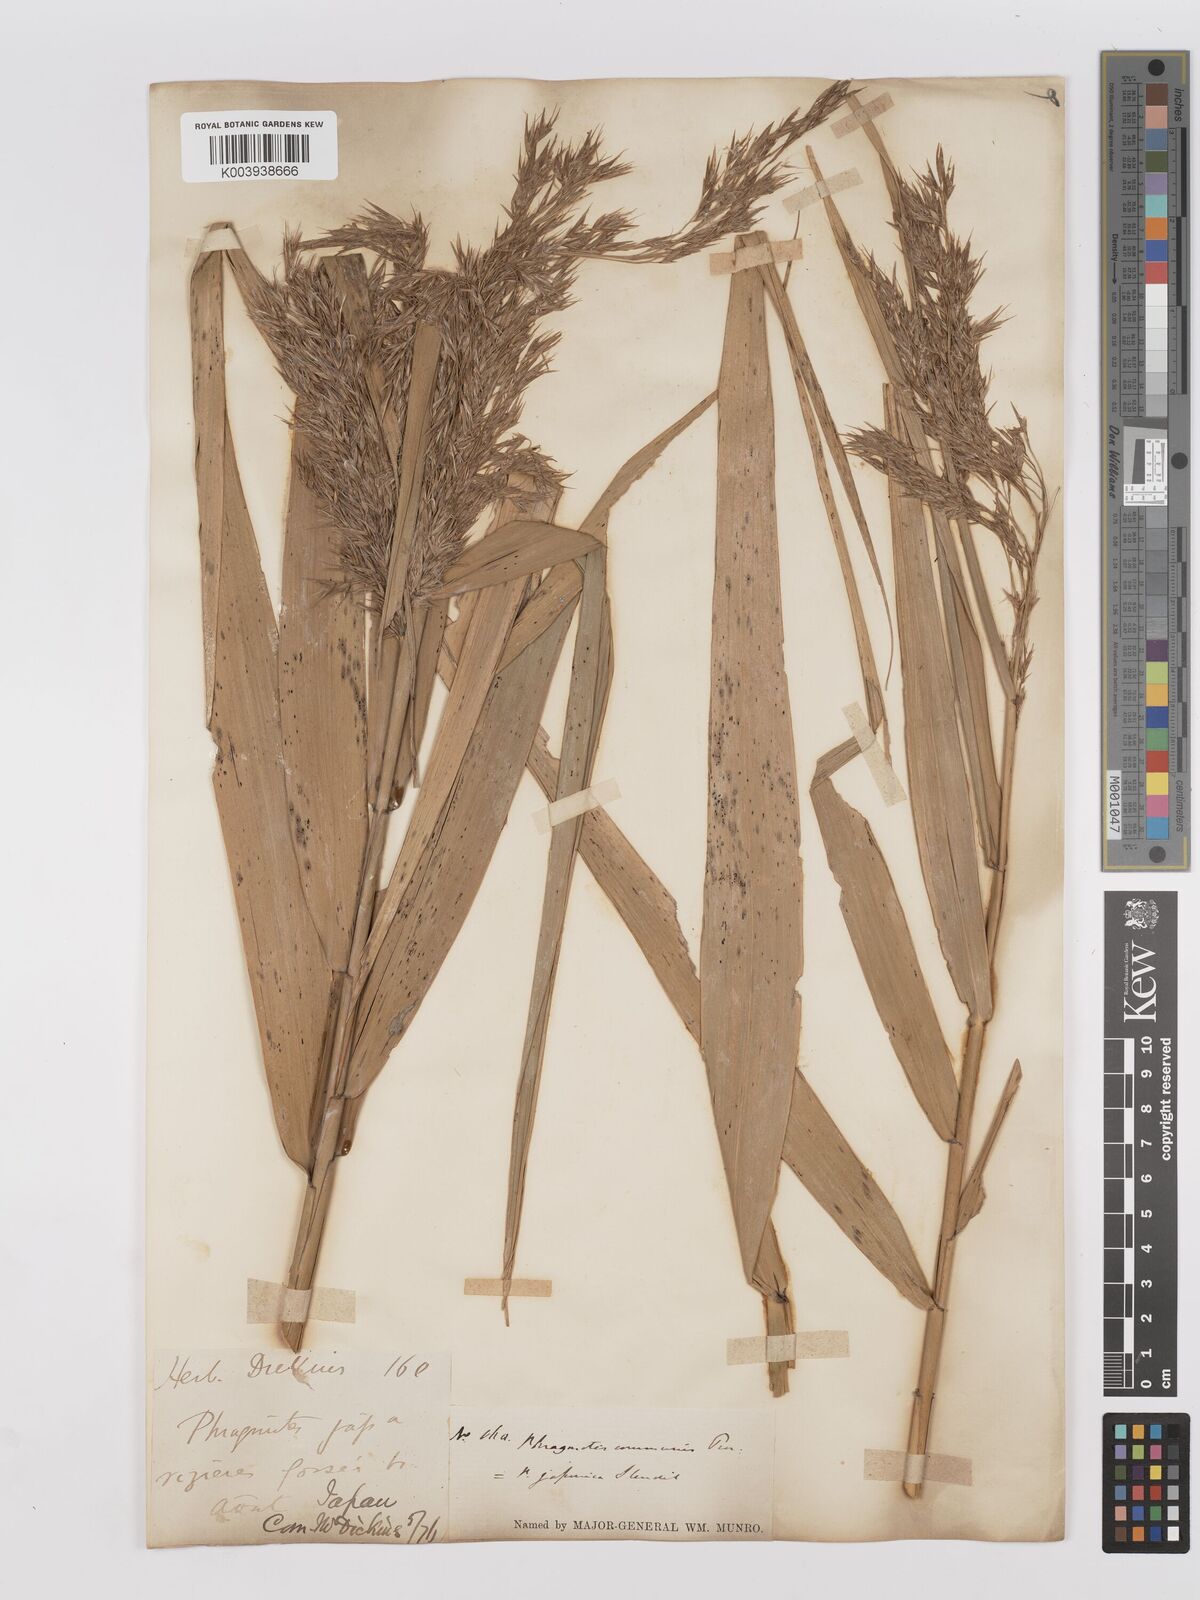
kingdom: Plantae
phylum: Tracheophyta
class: Liliopsida
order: Poales
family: Poaceae
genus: Phragmites
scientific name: Phragmites australis
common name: Common reed
